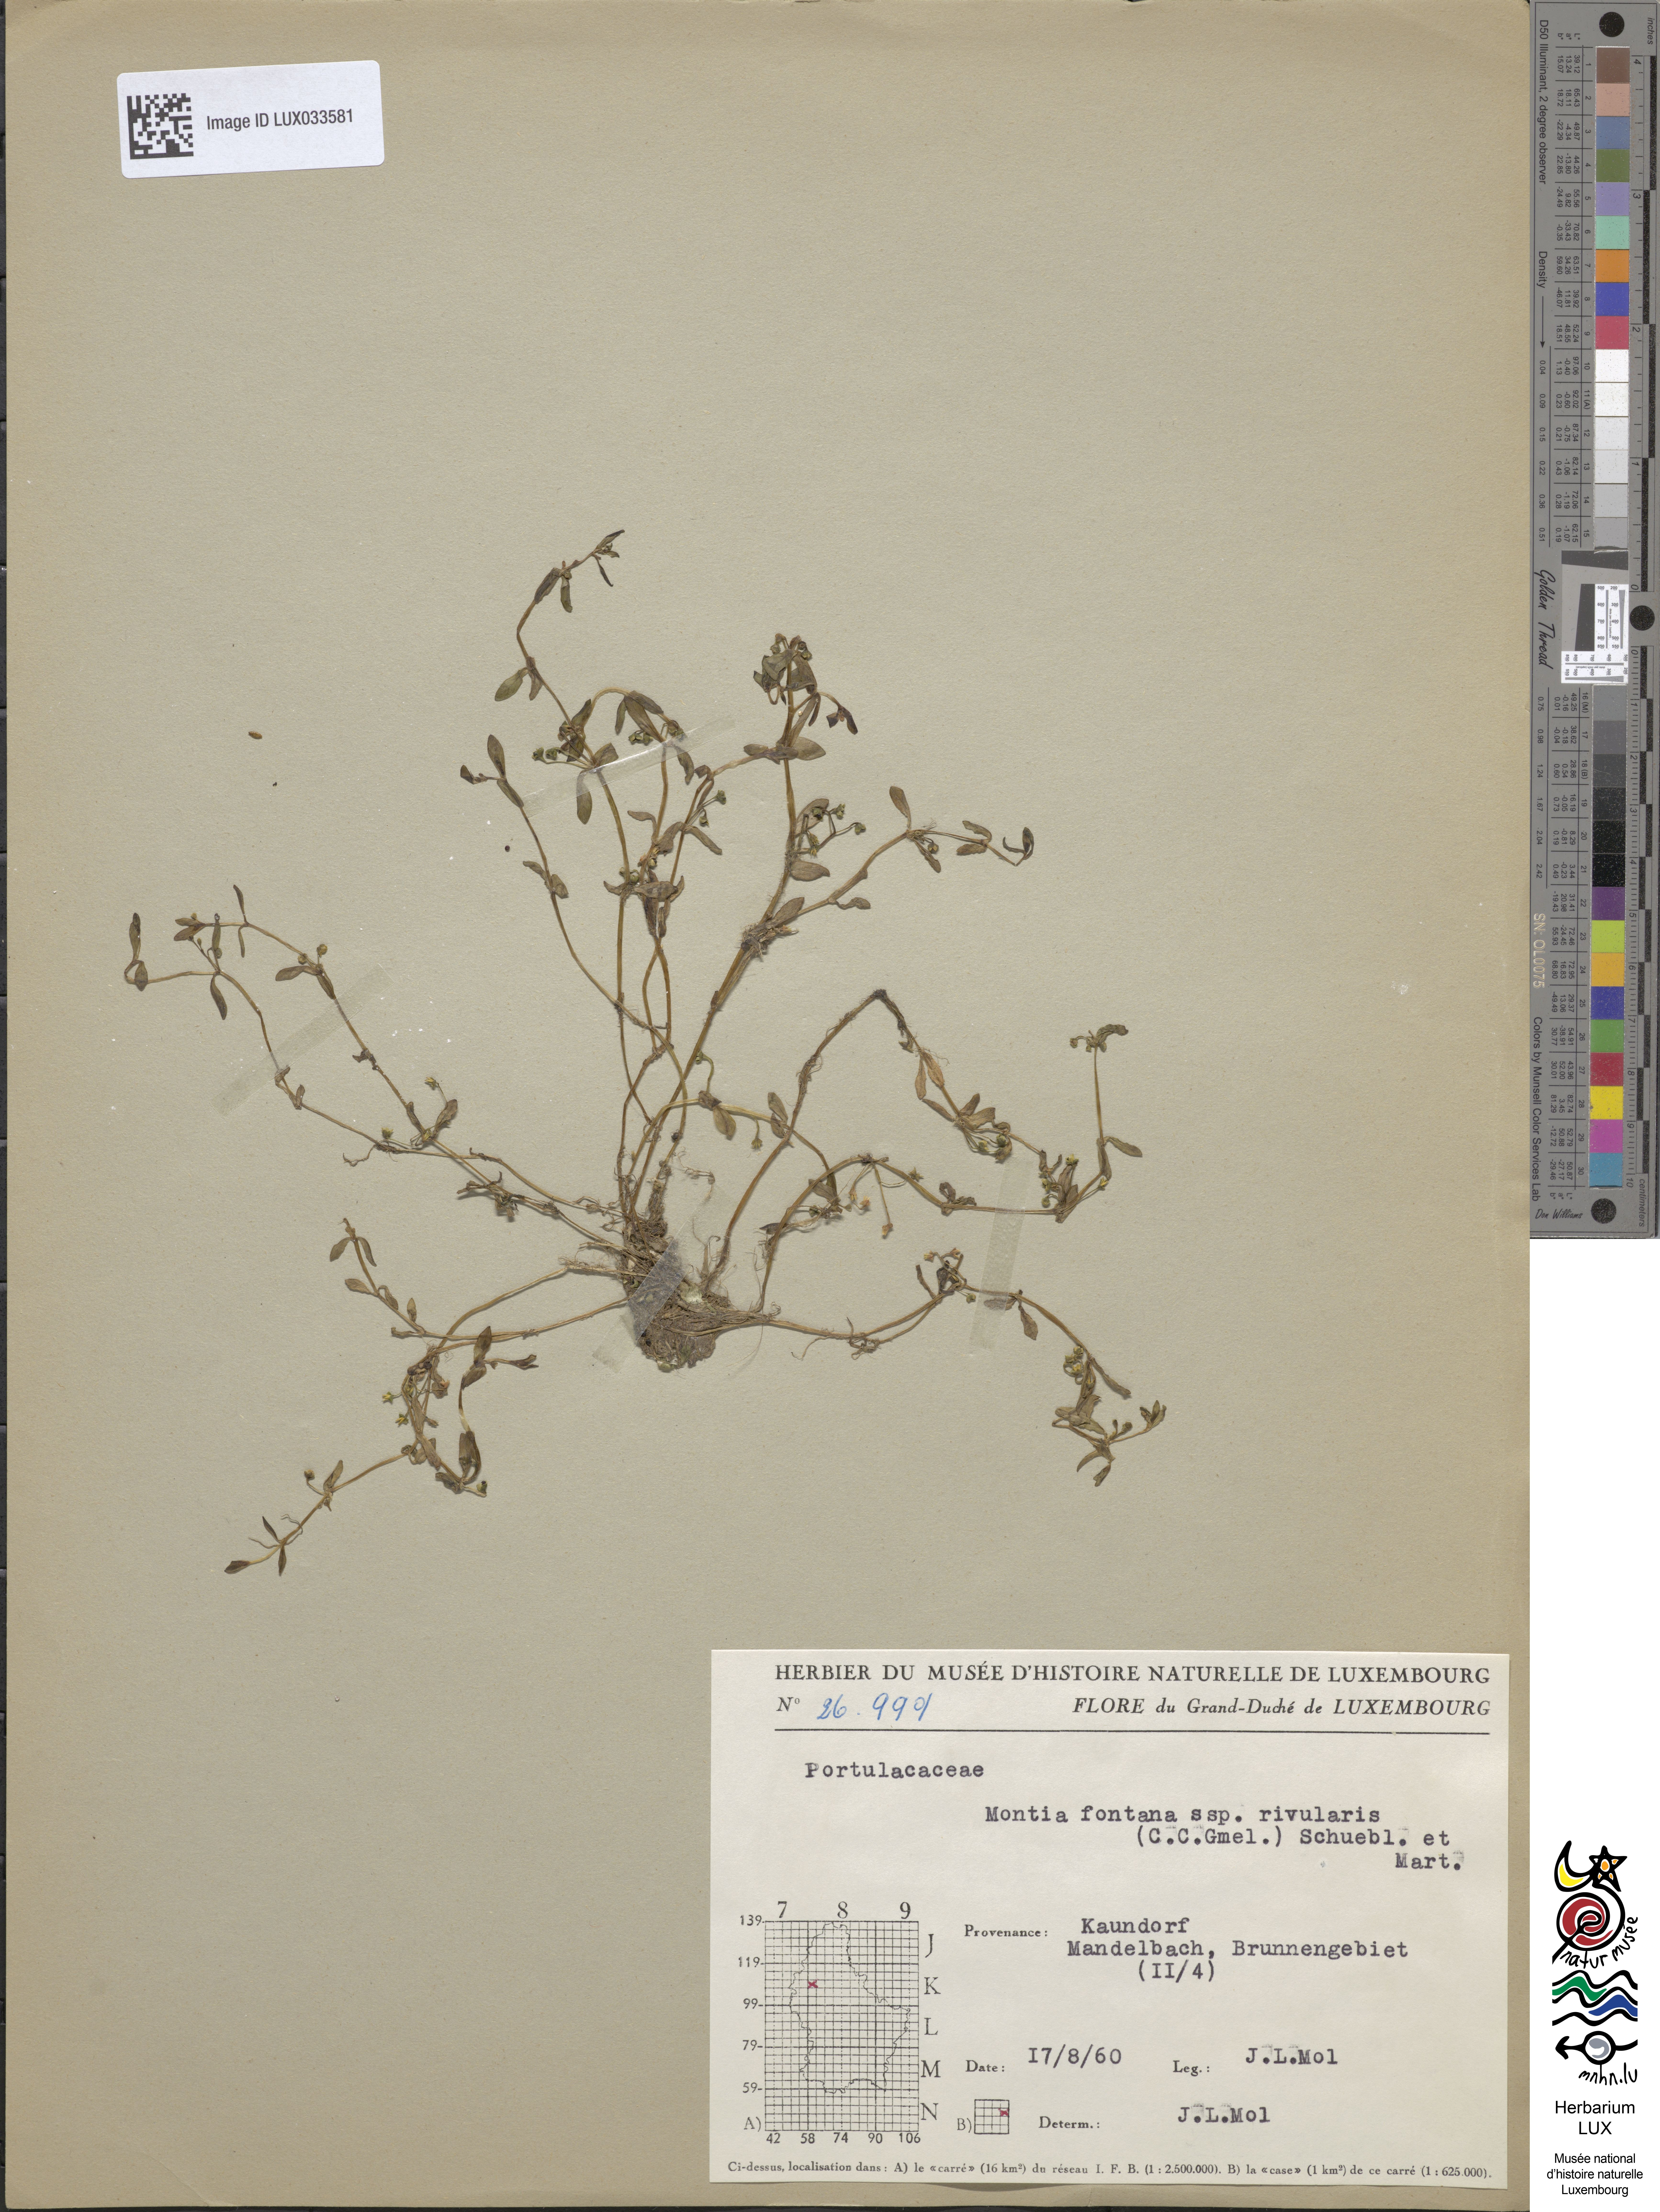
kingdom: Plantae
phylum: Tracheophyta
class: Magnoliopsida
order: Caryophyllales
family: Montiaceae
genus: Montia
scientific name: Montia fontana
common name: Blinks
